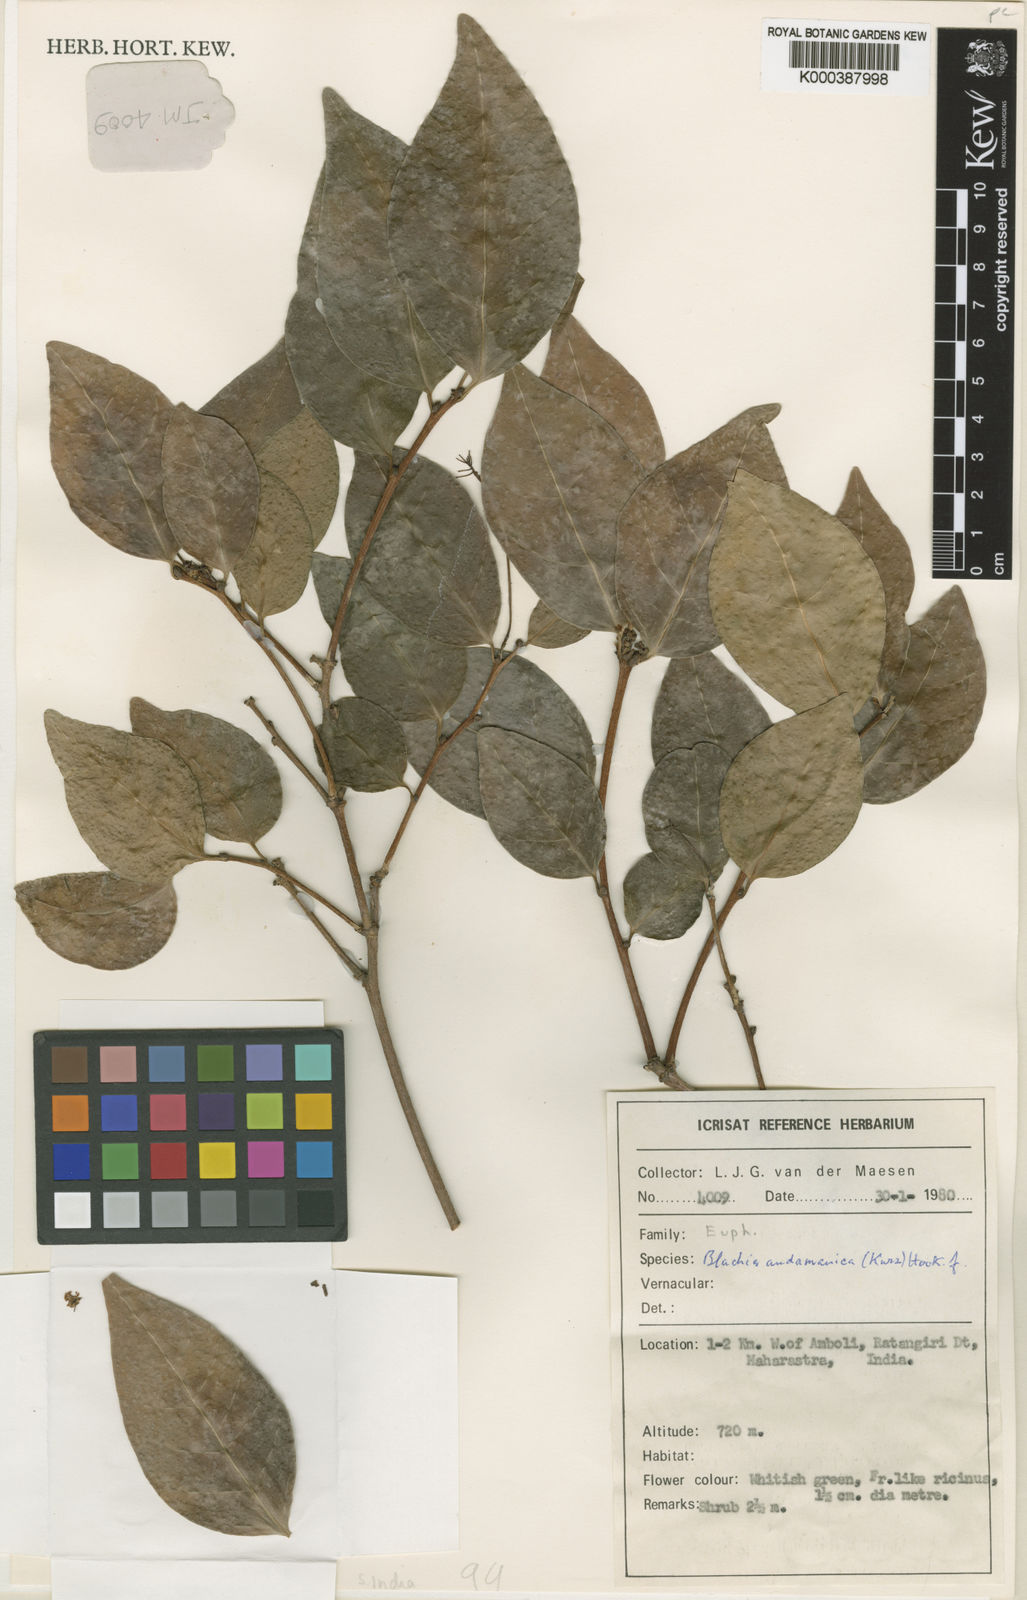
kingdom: Plantae
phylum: Tracheophyta
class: Magnoliopsida
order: Malpighiales
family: Euphorbiaceae
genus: Blachia
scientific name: Blachia andamanica
